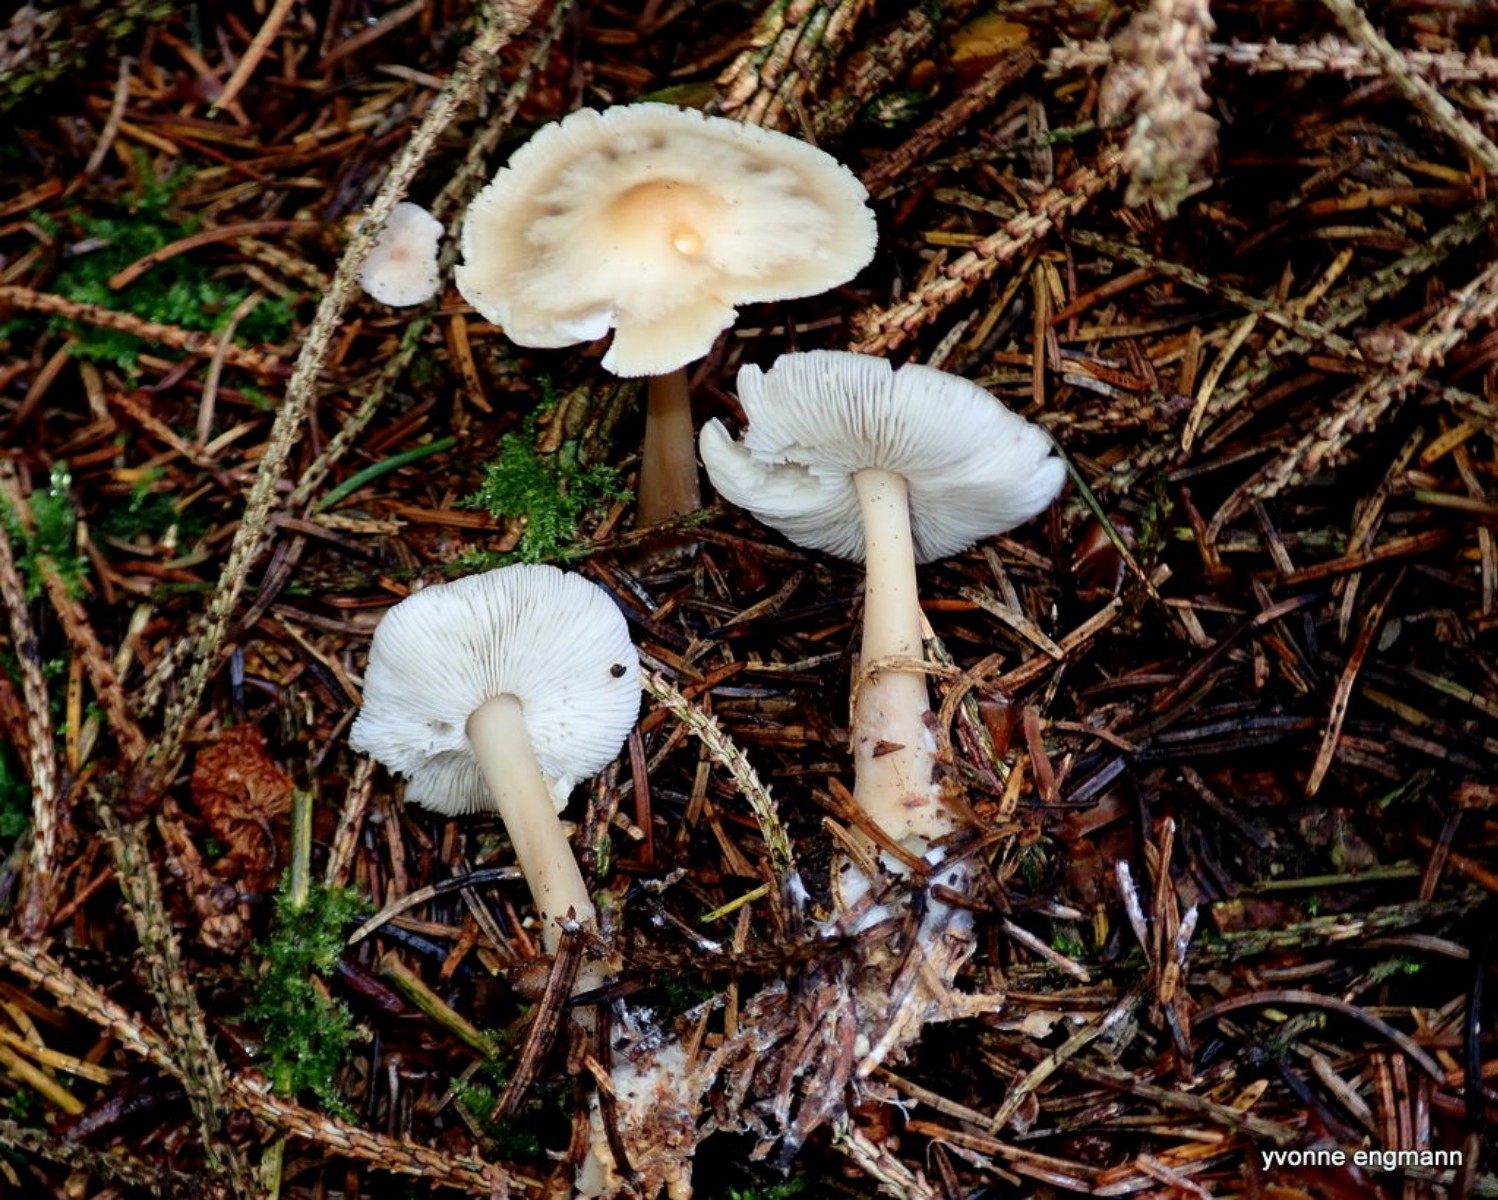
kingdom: Fungi
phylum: Basidiomycota
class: Agaricomycetes
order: Agaricales
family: Omphalotaceae
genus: Rhodocollybia
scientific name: Rhodocollybia asema
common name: horngrå fladhat
